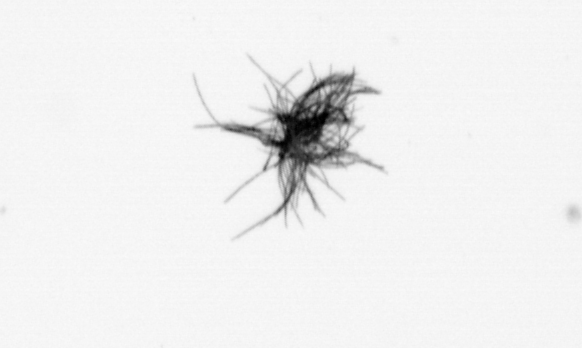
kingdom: Bacteria
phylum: Cyanobacteria
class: Cyanobacteriia
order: Cyanobacteriales
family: Microcoleaceae
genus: Trichodesmium
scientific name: Trichodesmium
